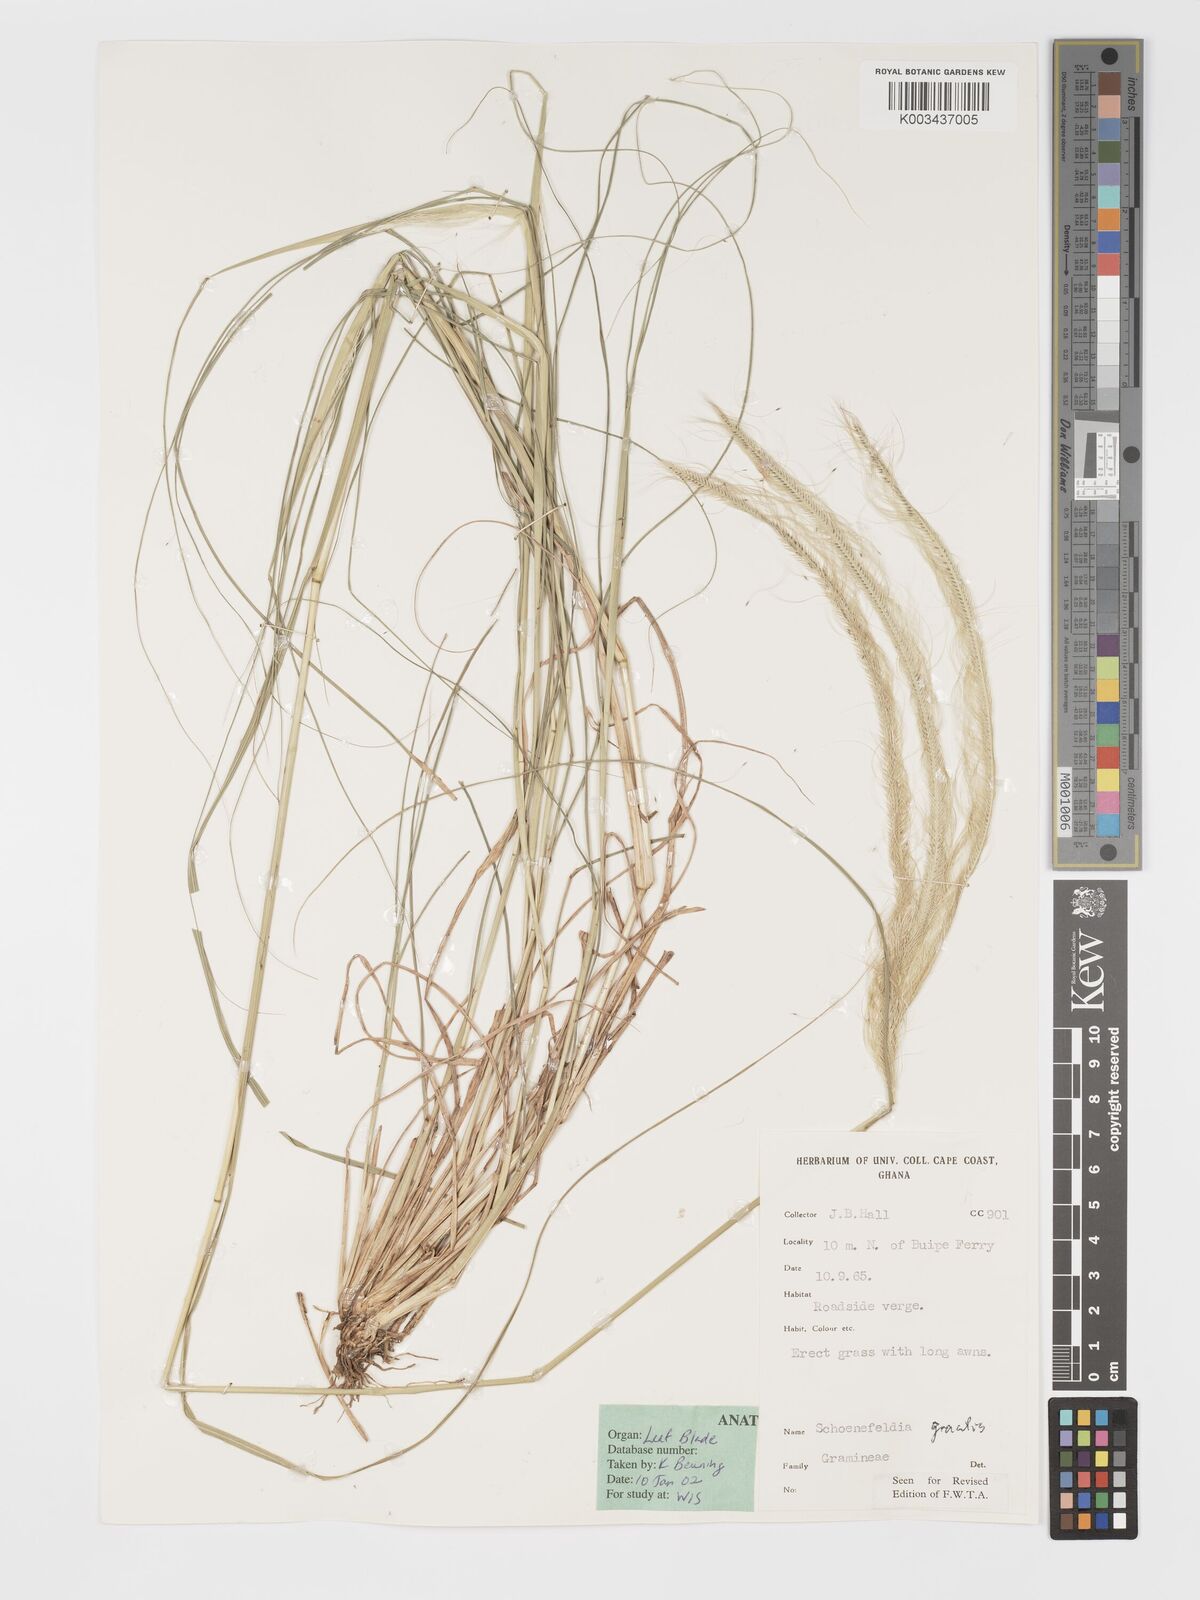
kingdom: Plantae
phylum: Tracheophyta
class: Liliopsida
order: Poales
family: Poaceae
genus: Schoenefeldia
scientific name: Schoenefeldia gracilis
